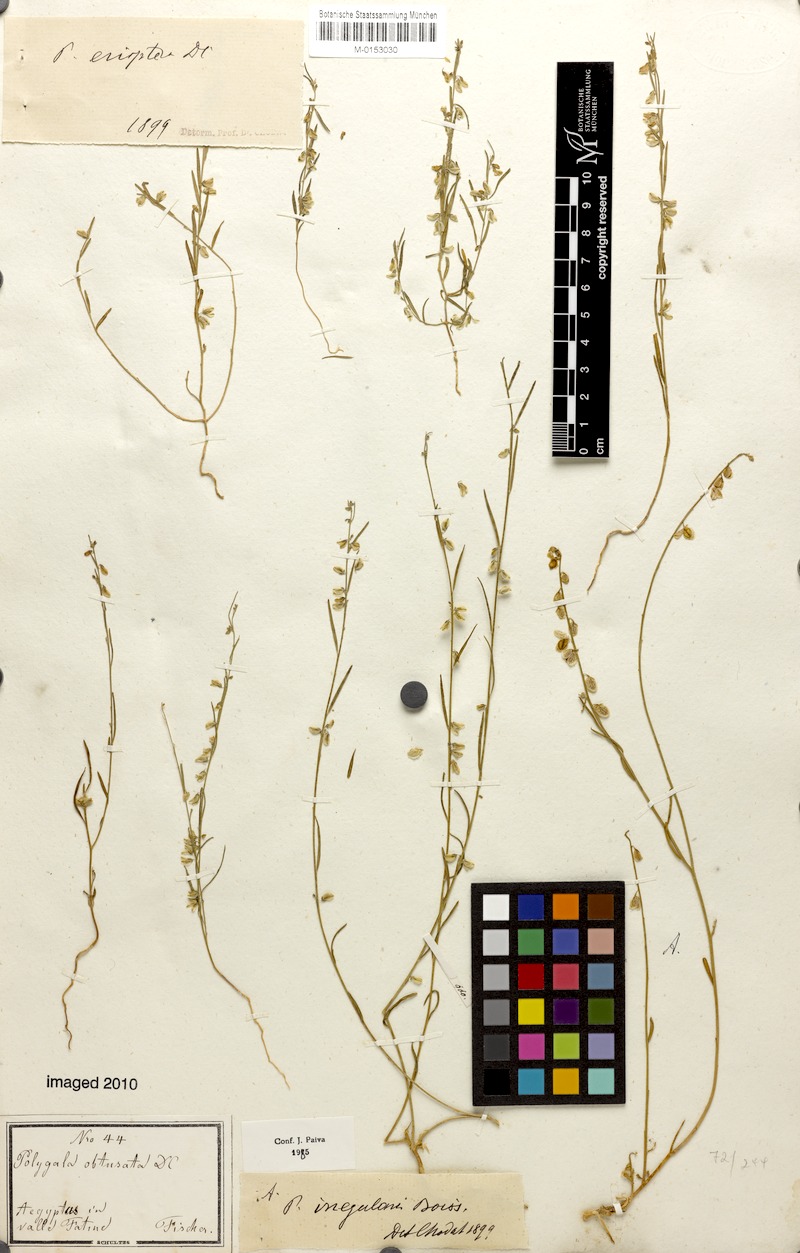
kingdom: Plantae
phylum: Tracheophyta
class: Magnoliopsida
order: Fabales
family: Polygalaceae
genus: Polygala
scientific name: Polygala irregularis
